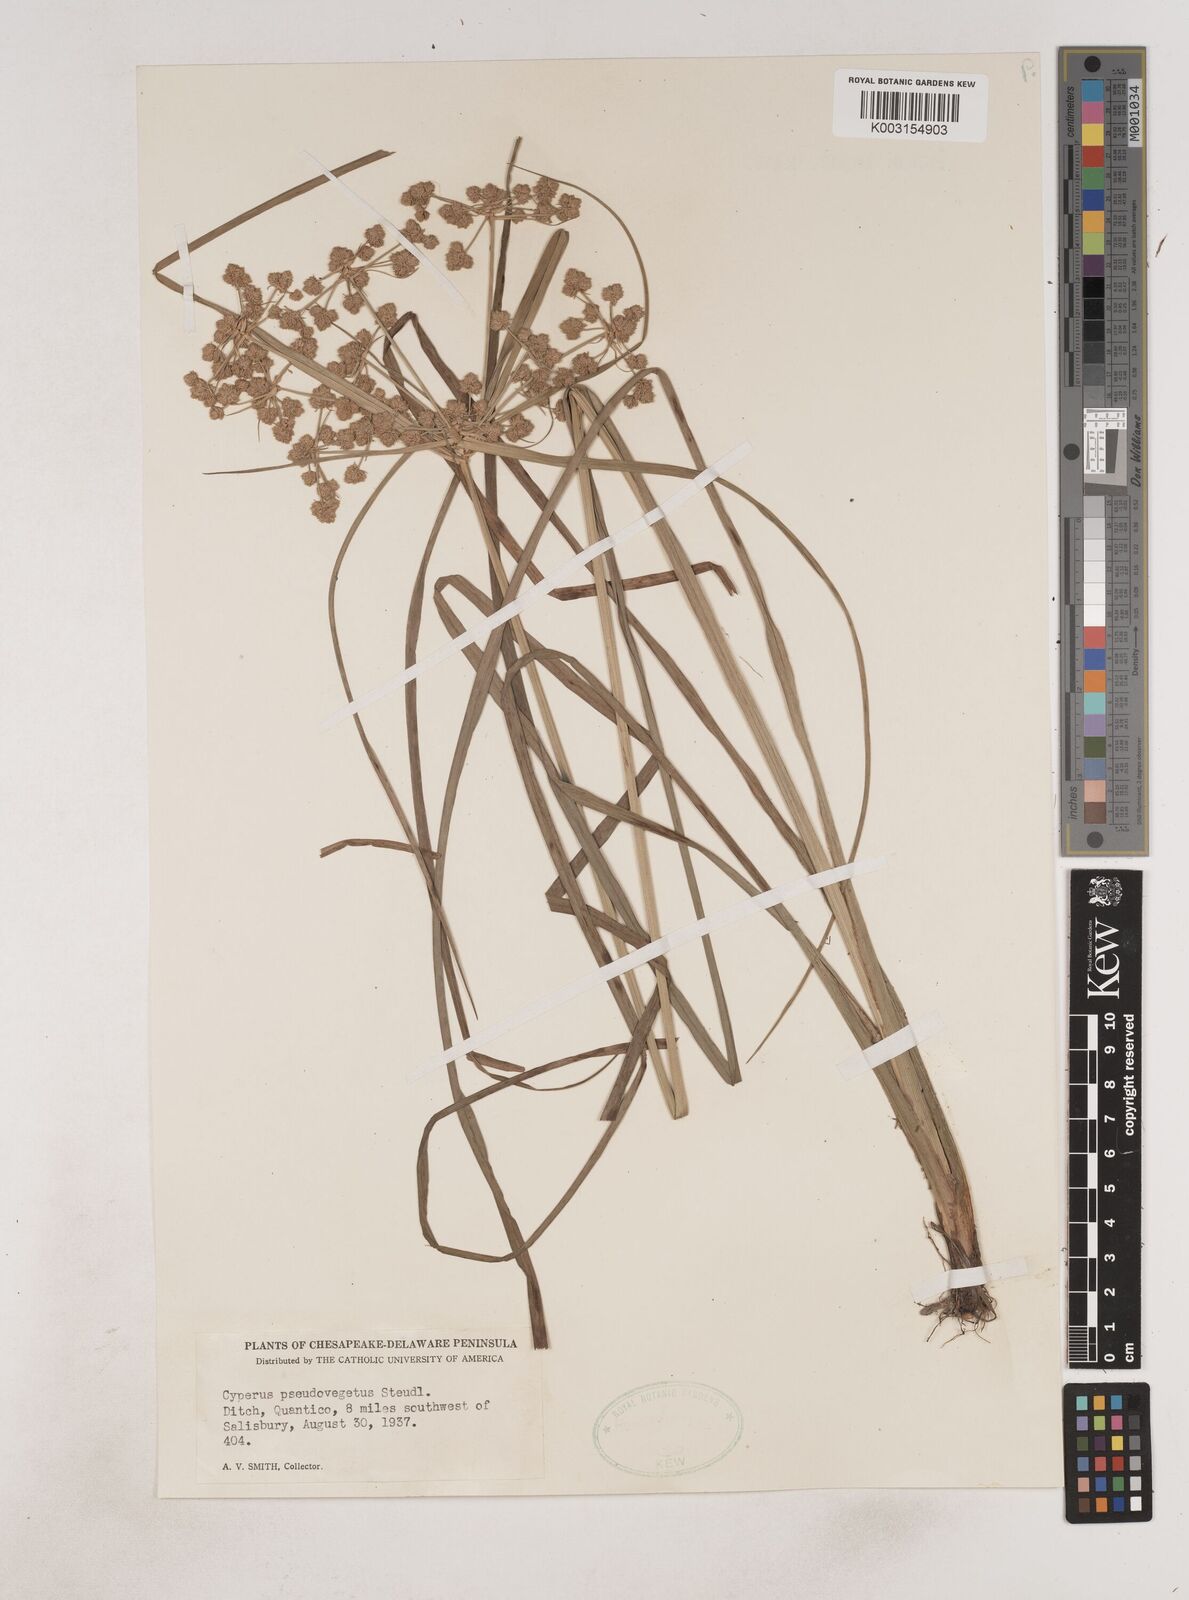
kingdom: Plantae
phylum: Tracheophyta
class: Liliopsida
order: Poales
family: Cyperaceae
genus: Cyperus
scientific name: Cyperus pseudovegetus
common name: Marsh flat sedge
